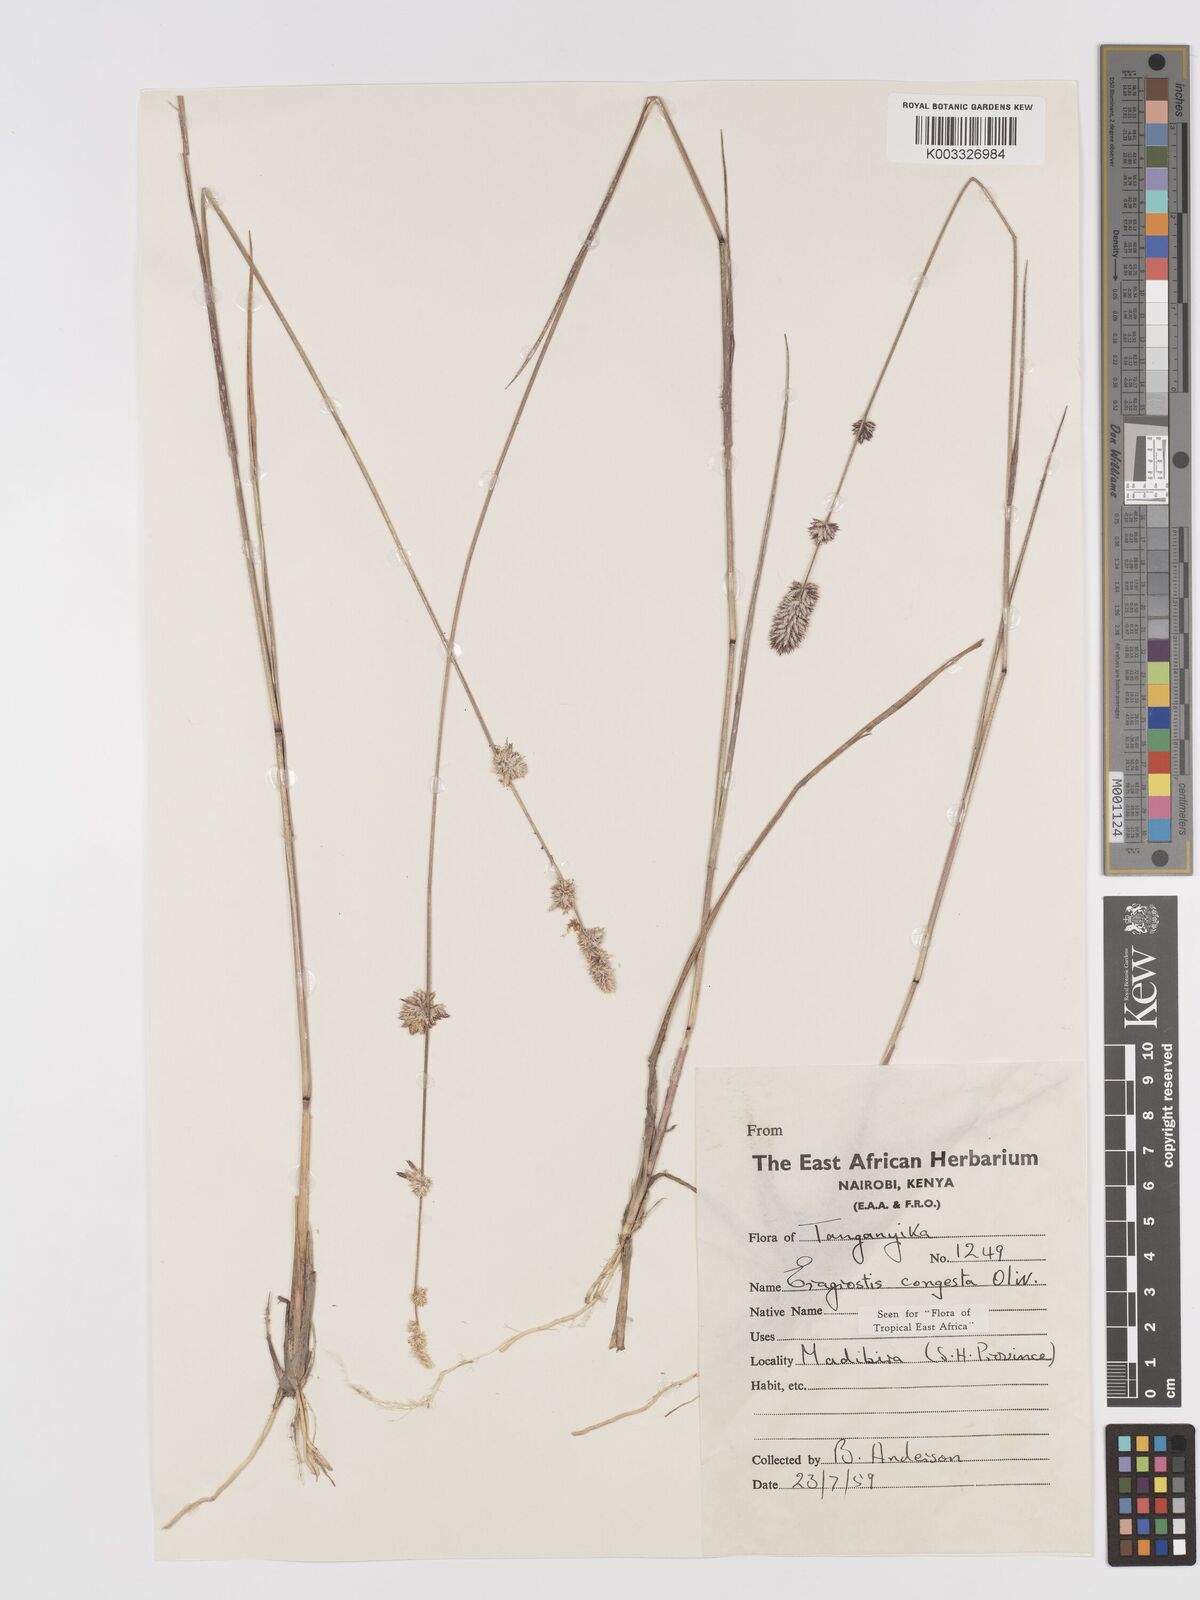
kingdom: Plantae
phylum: Tracheophyta
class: Liliopsida
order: Poales
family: Poaceae
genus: Eragrostis
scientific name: Eragrostis congesta
